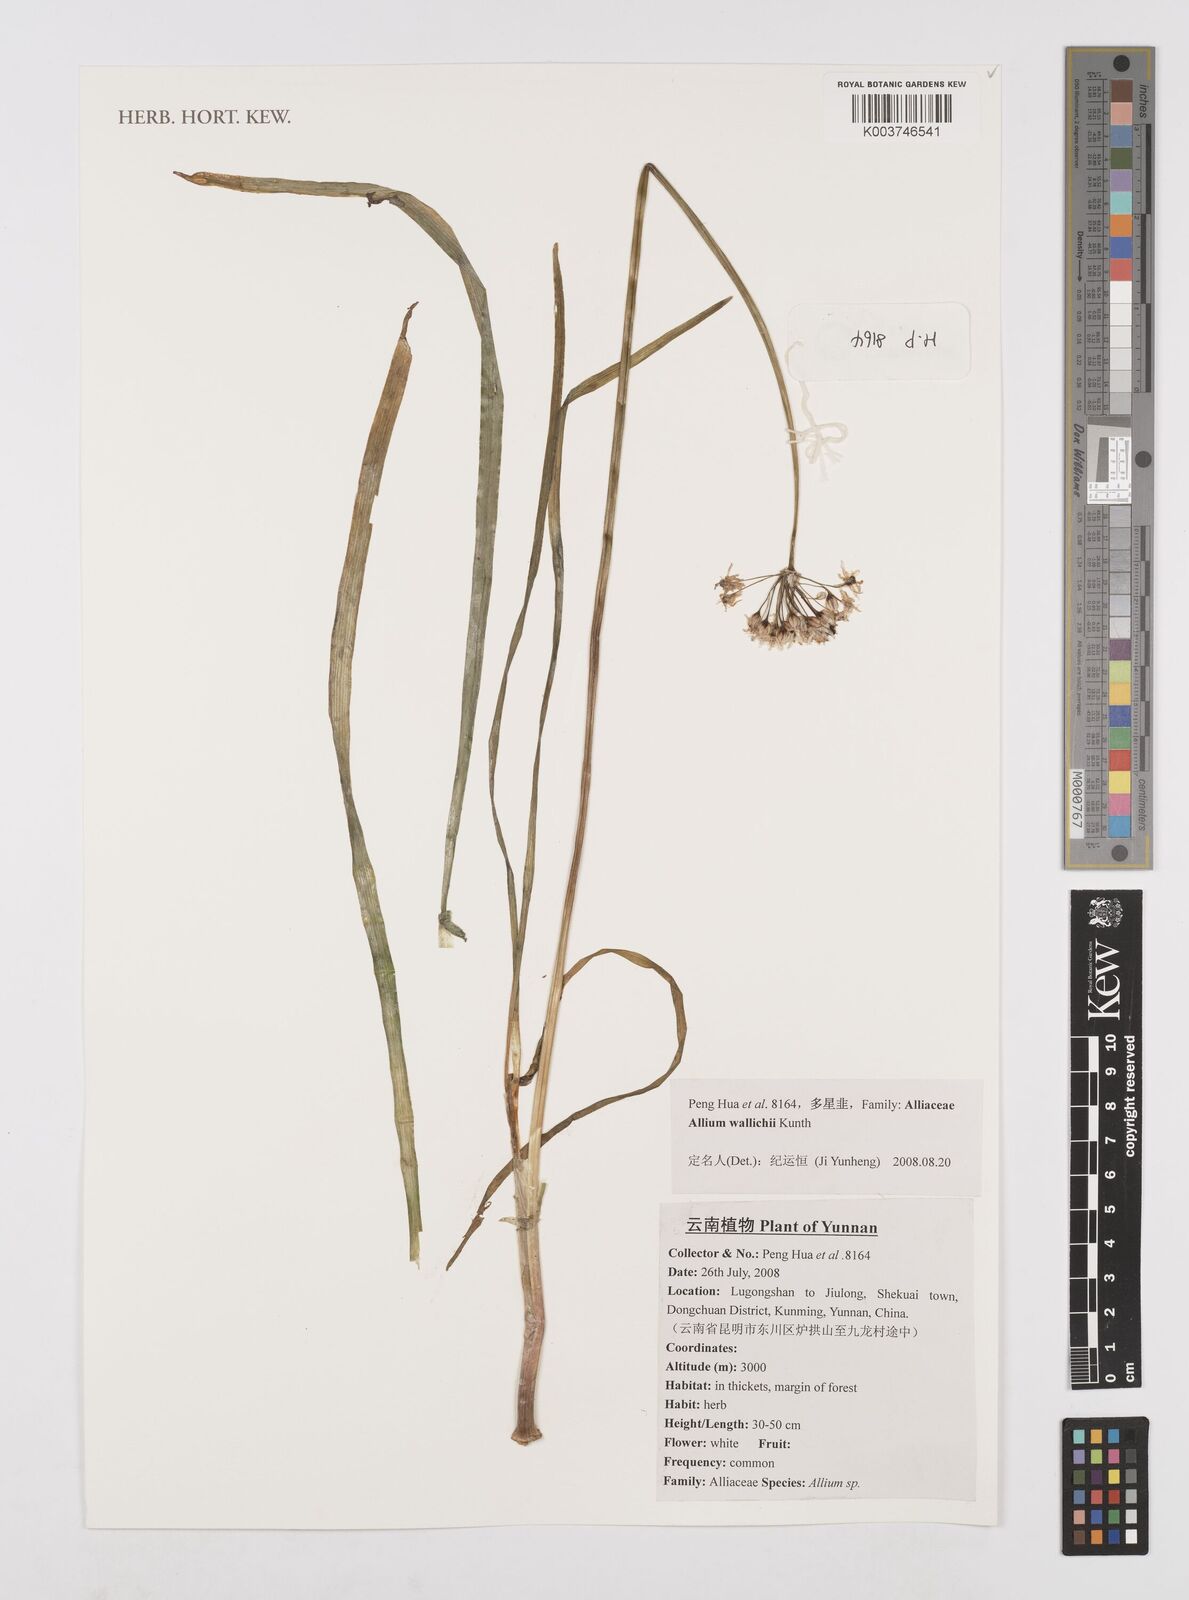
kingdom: Plantae
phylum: Tracheophyta
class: Liliopsida
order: Asparagales
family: Amaryllidaceae
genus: Allium
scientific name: Allium wallichii
